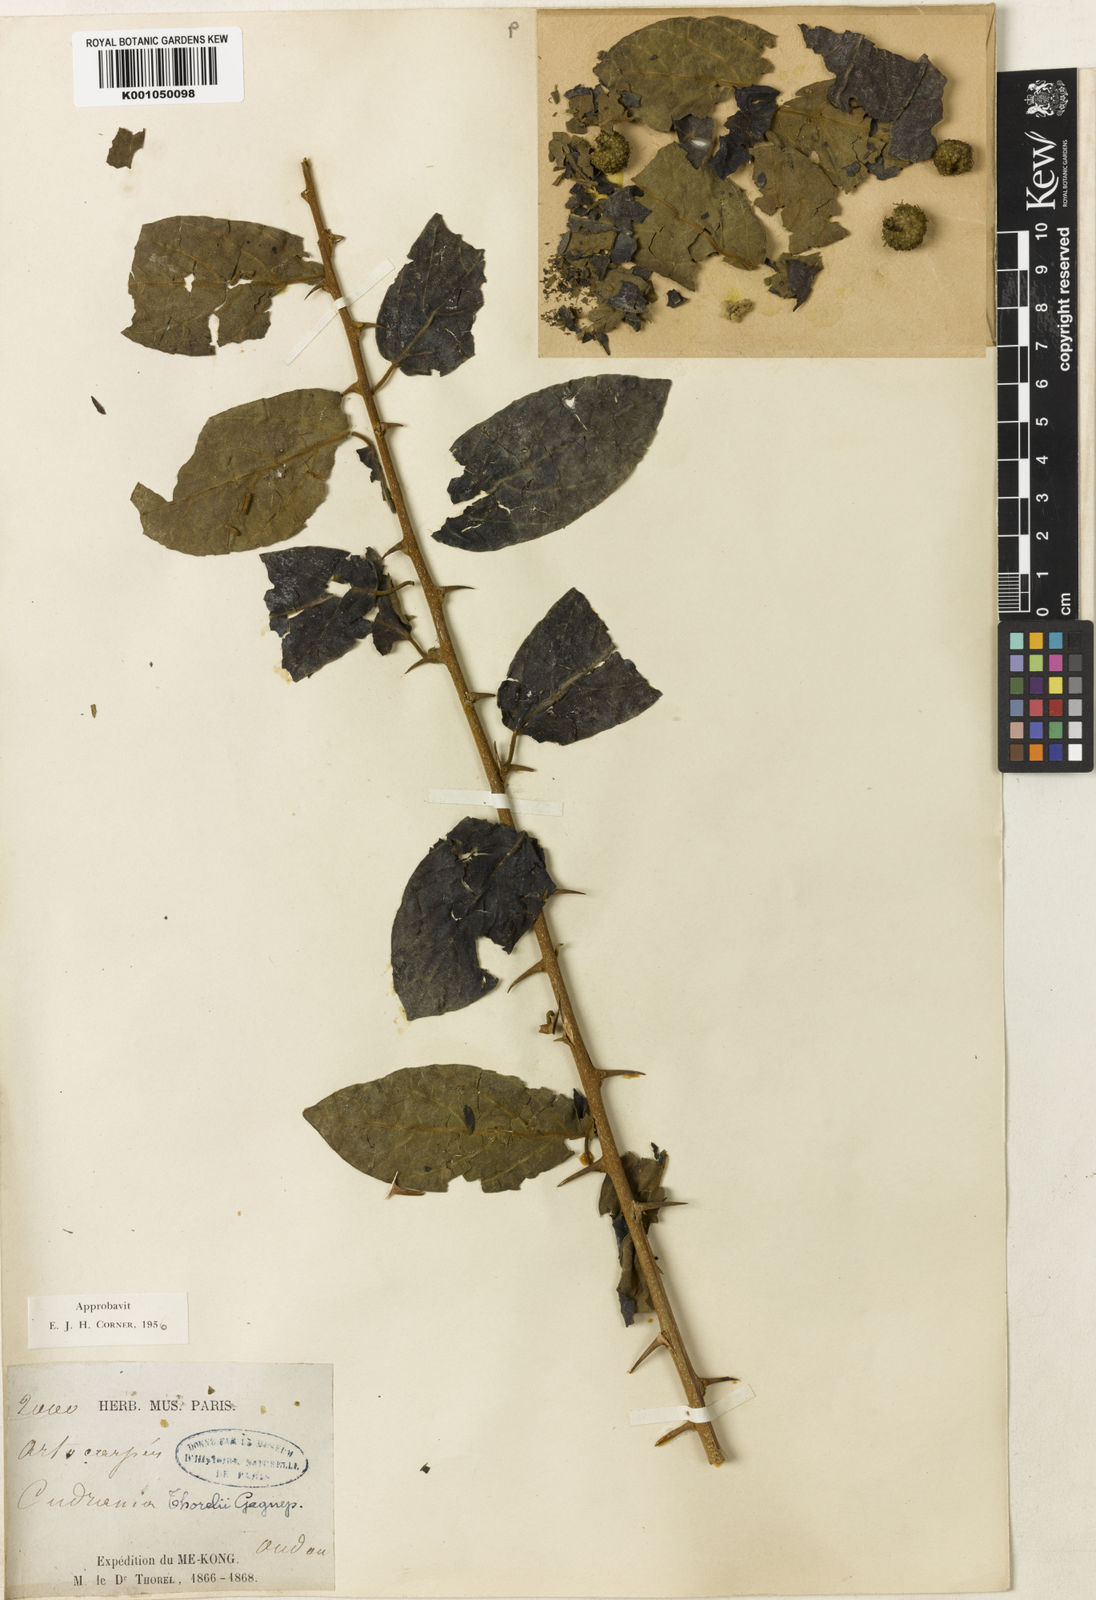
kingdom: Plantae
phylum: Tracheophyta
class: Magnoliopsida
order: Rosales
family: Moraceae
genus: Maclura
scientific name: Maclura cochinchinensis
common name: Cockspurthorn
